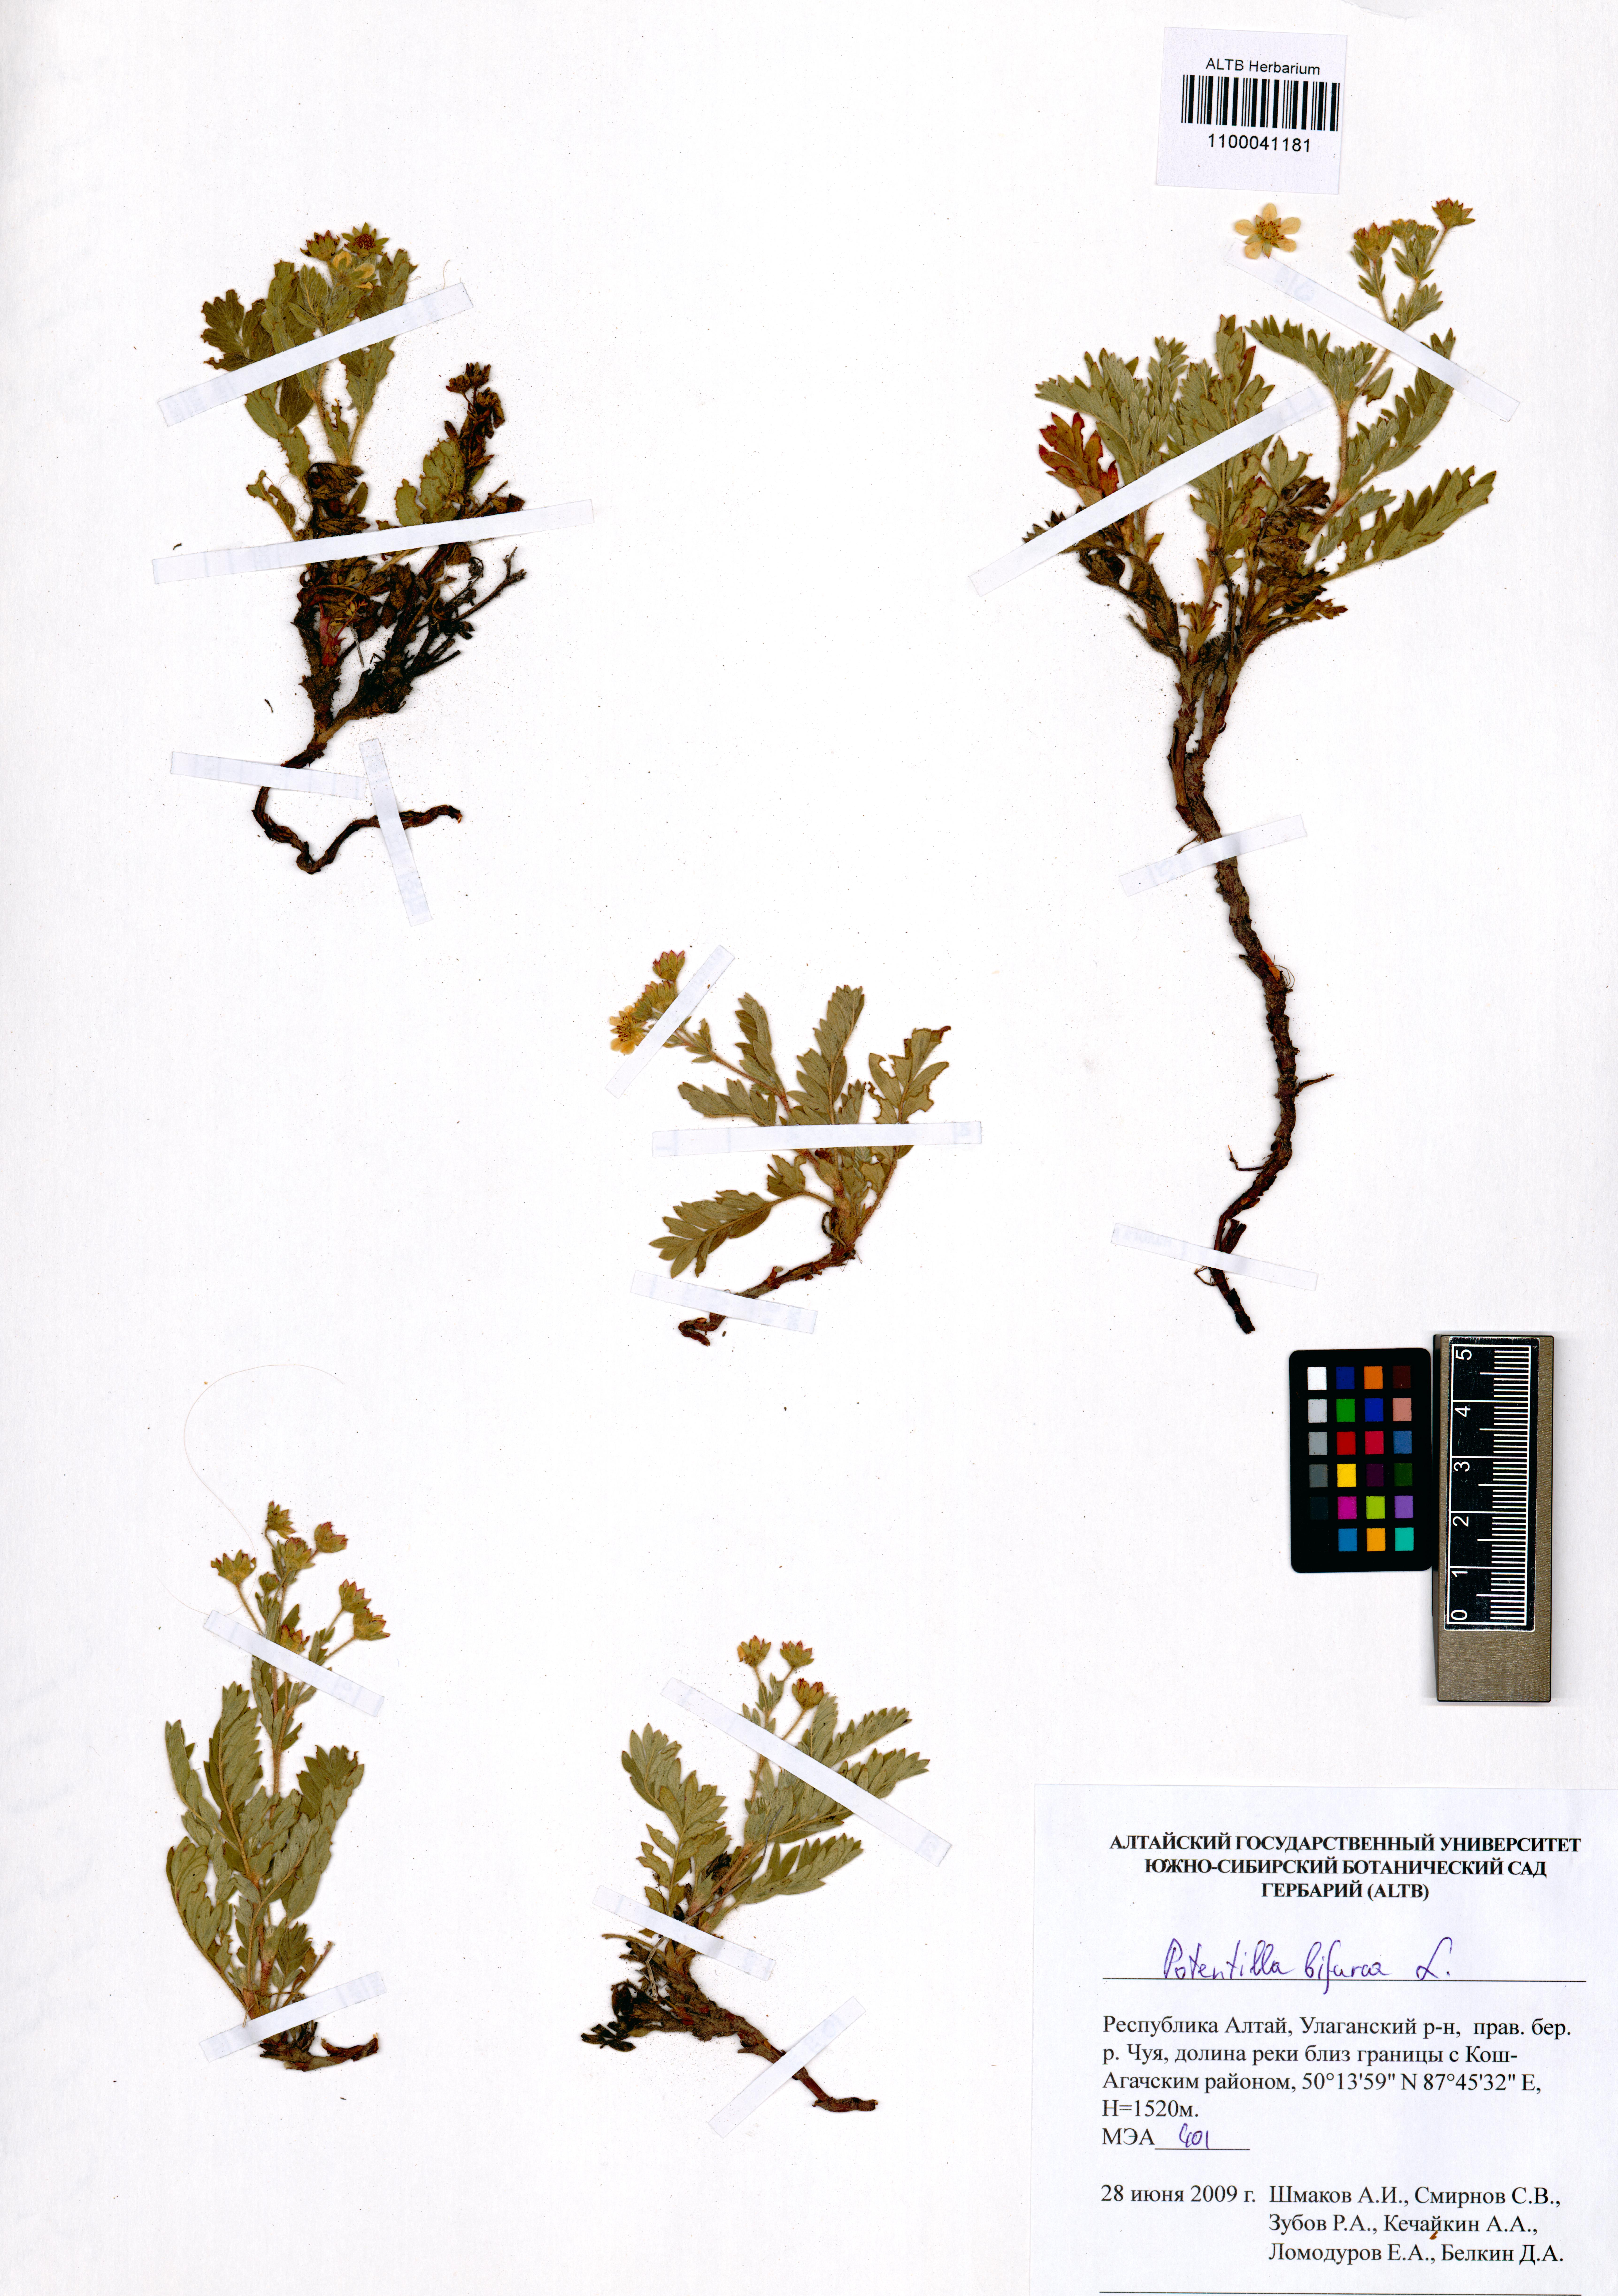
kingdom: Plantae
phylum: Tracheophyta
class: Magnoliopsida
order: Rosales
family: Rosaceae
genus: Sibbaldianthe
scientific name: Sibbaldianthe bifurca
